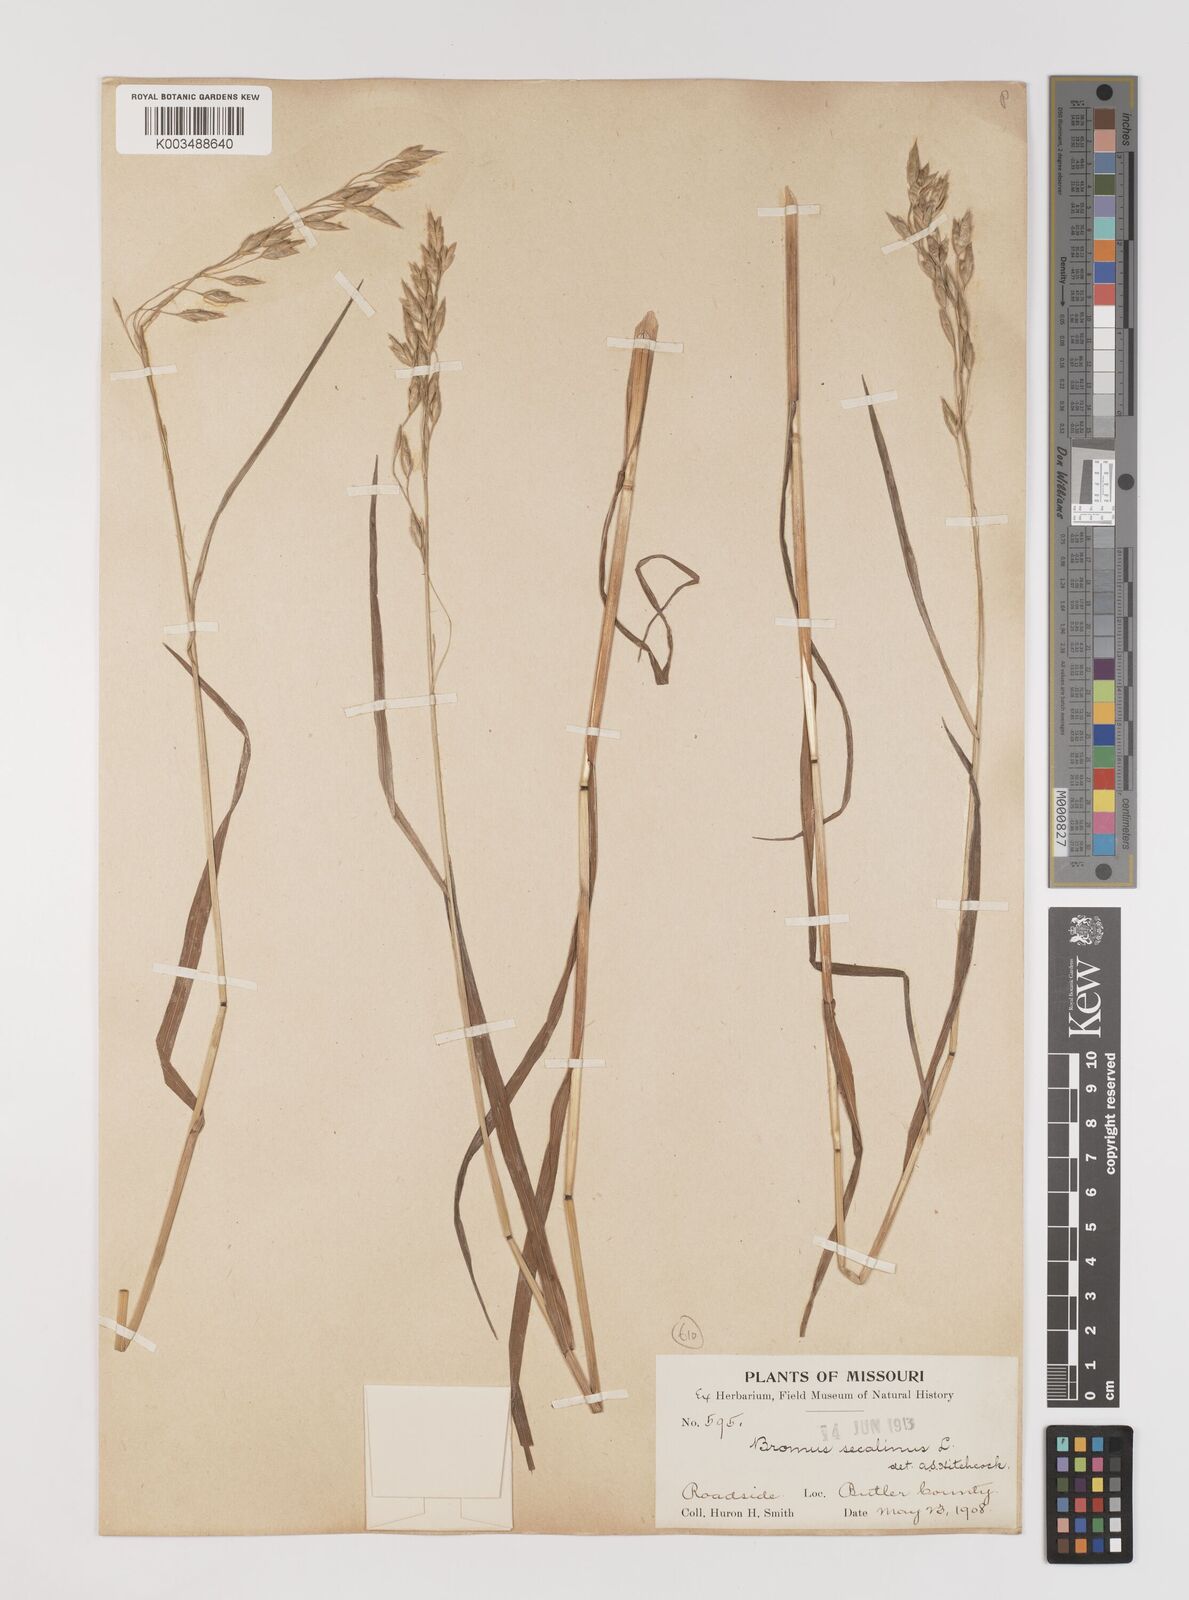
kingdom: Plantae
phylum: Tracheophyta
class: Liliopsida
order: Poales
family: Poaceae
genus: Bromus
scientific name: Bromus secalinus
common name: Rye brome
